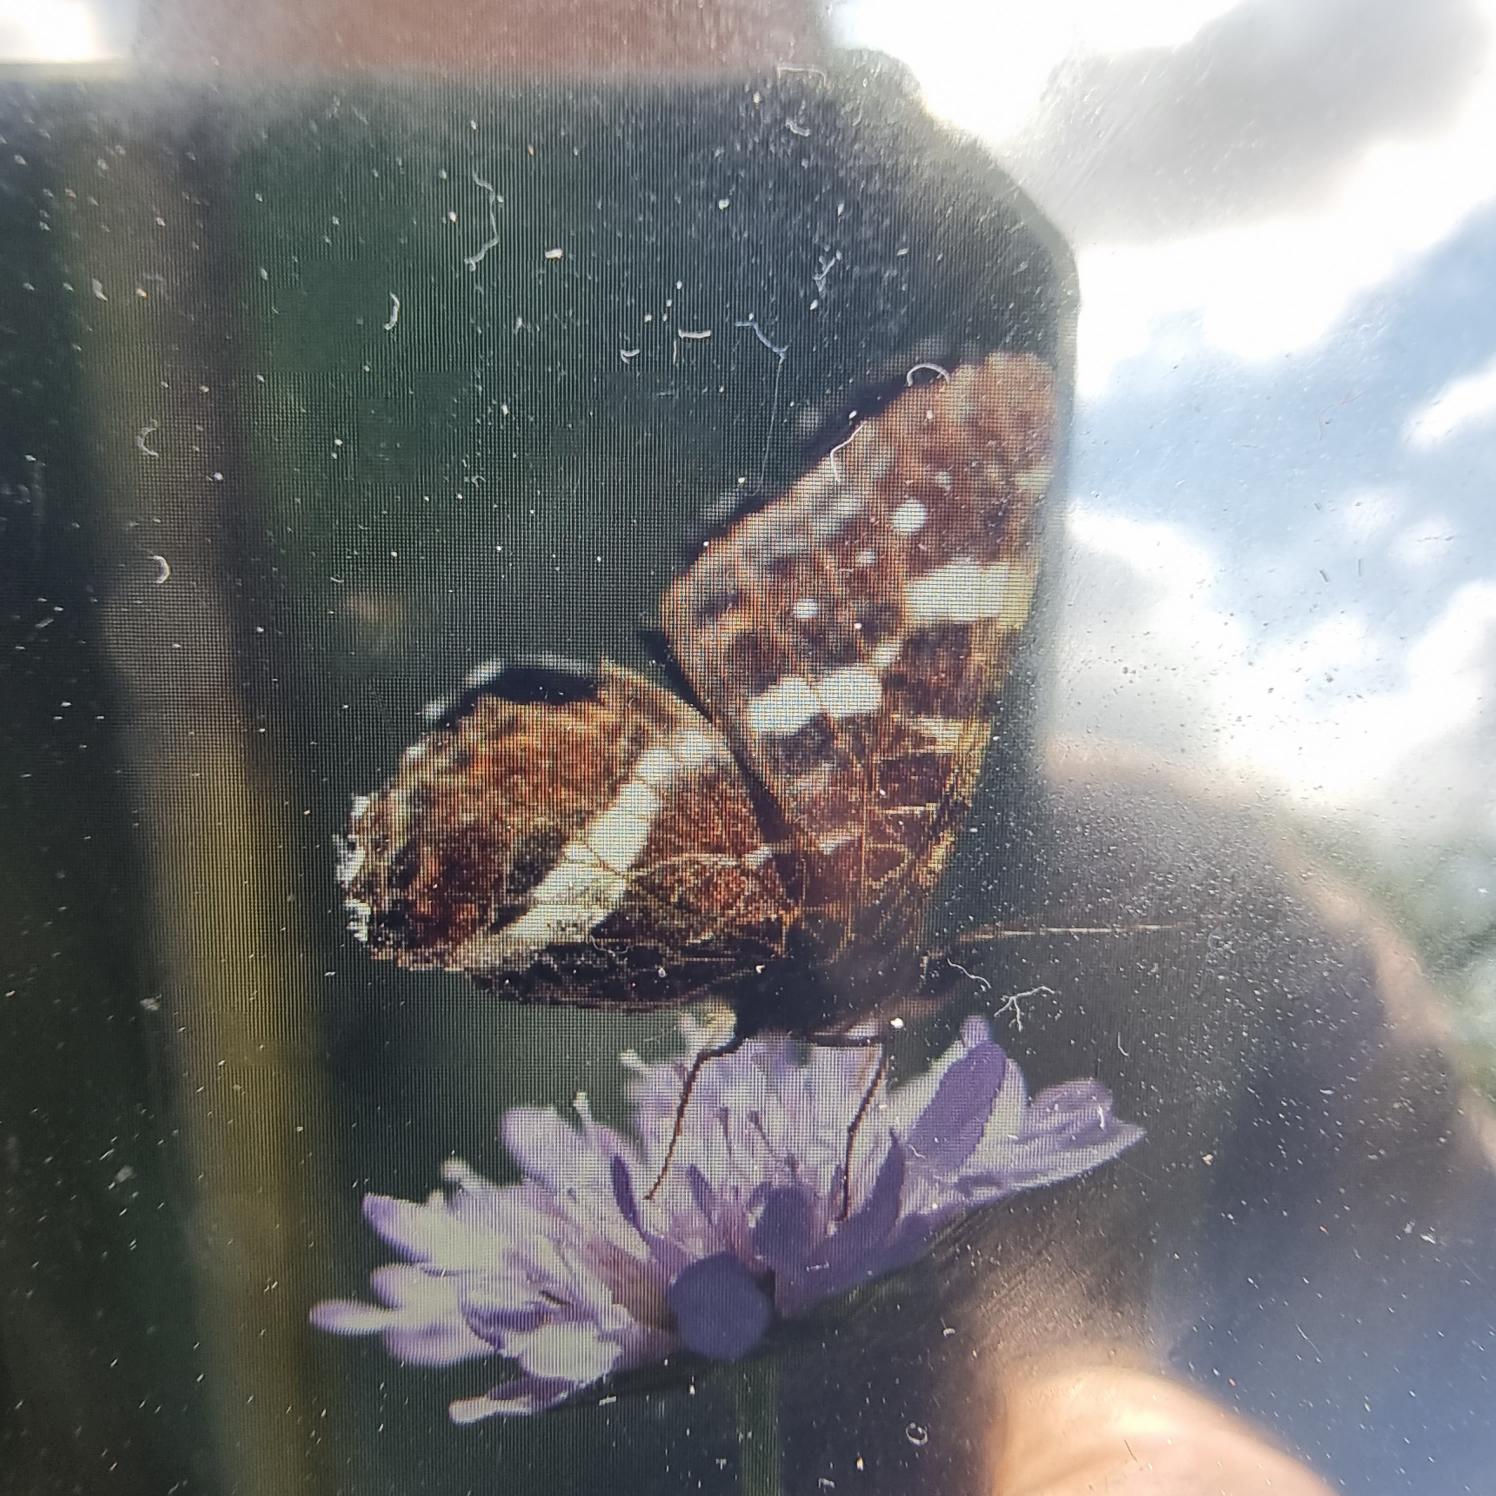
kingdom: Animalia
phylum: Arthropoda
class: Insecta
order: Lepidoptera
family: Nymphalidae
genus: Araschnia
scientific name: Araschnia levana
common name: Nældesommerfugl
